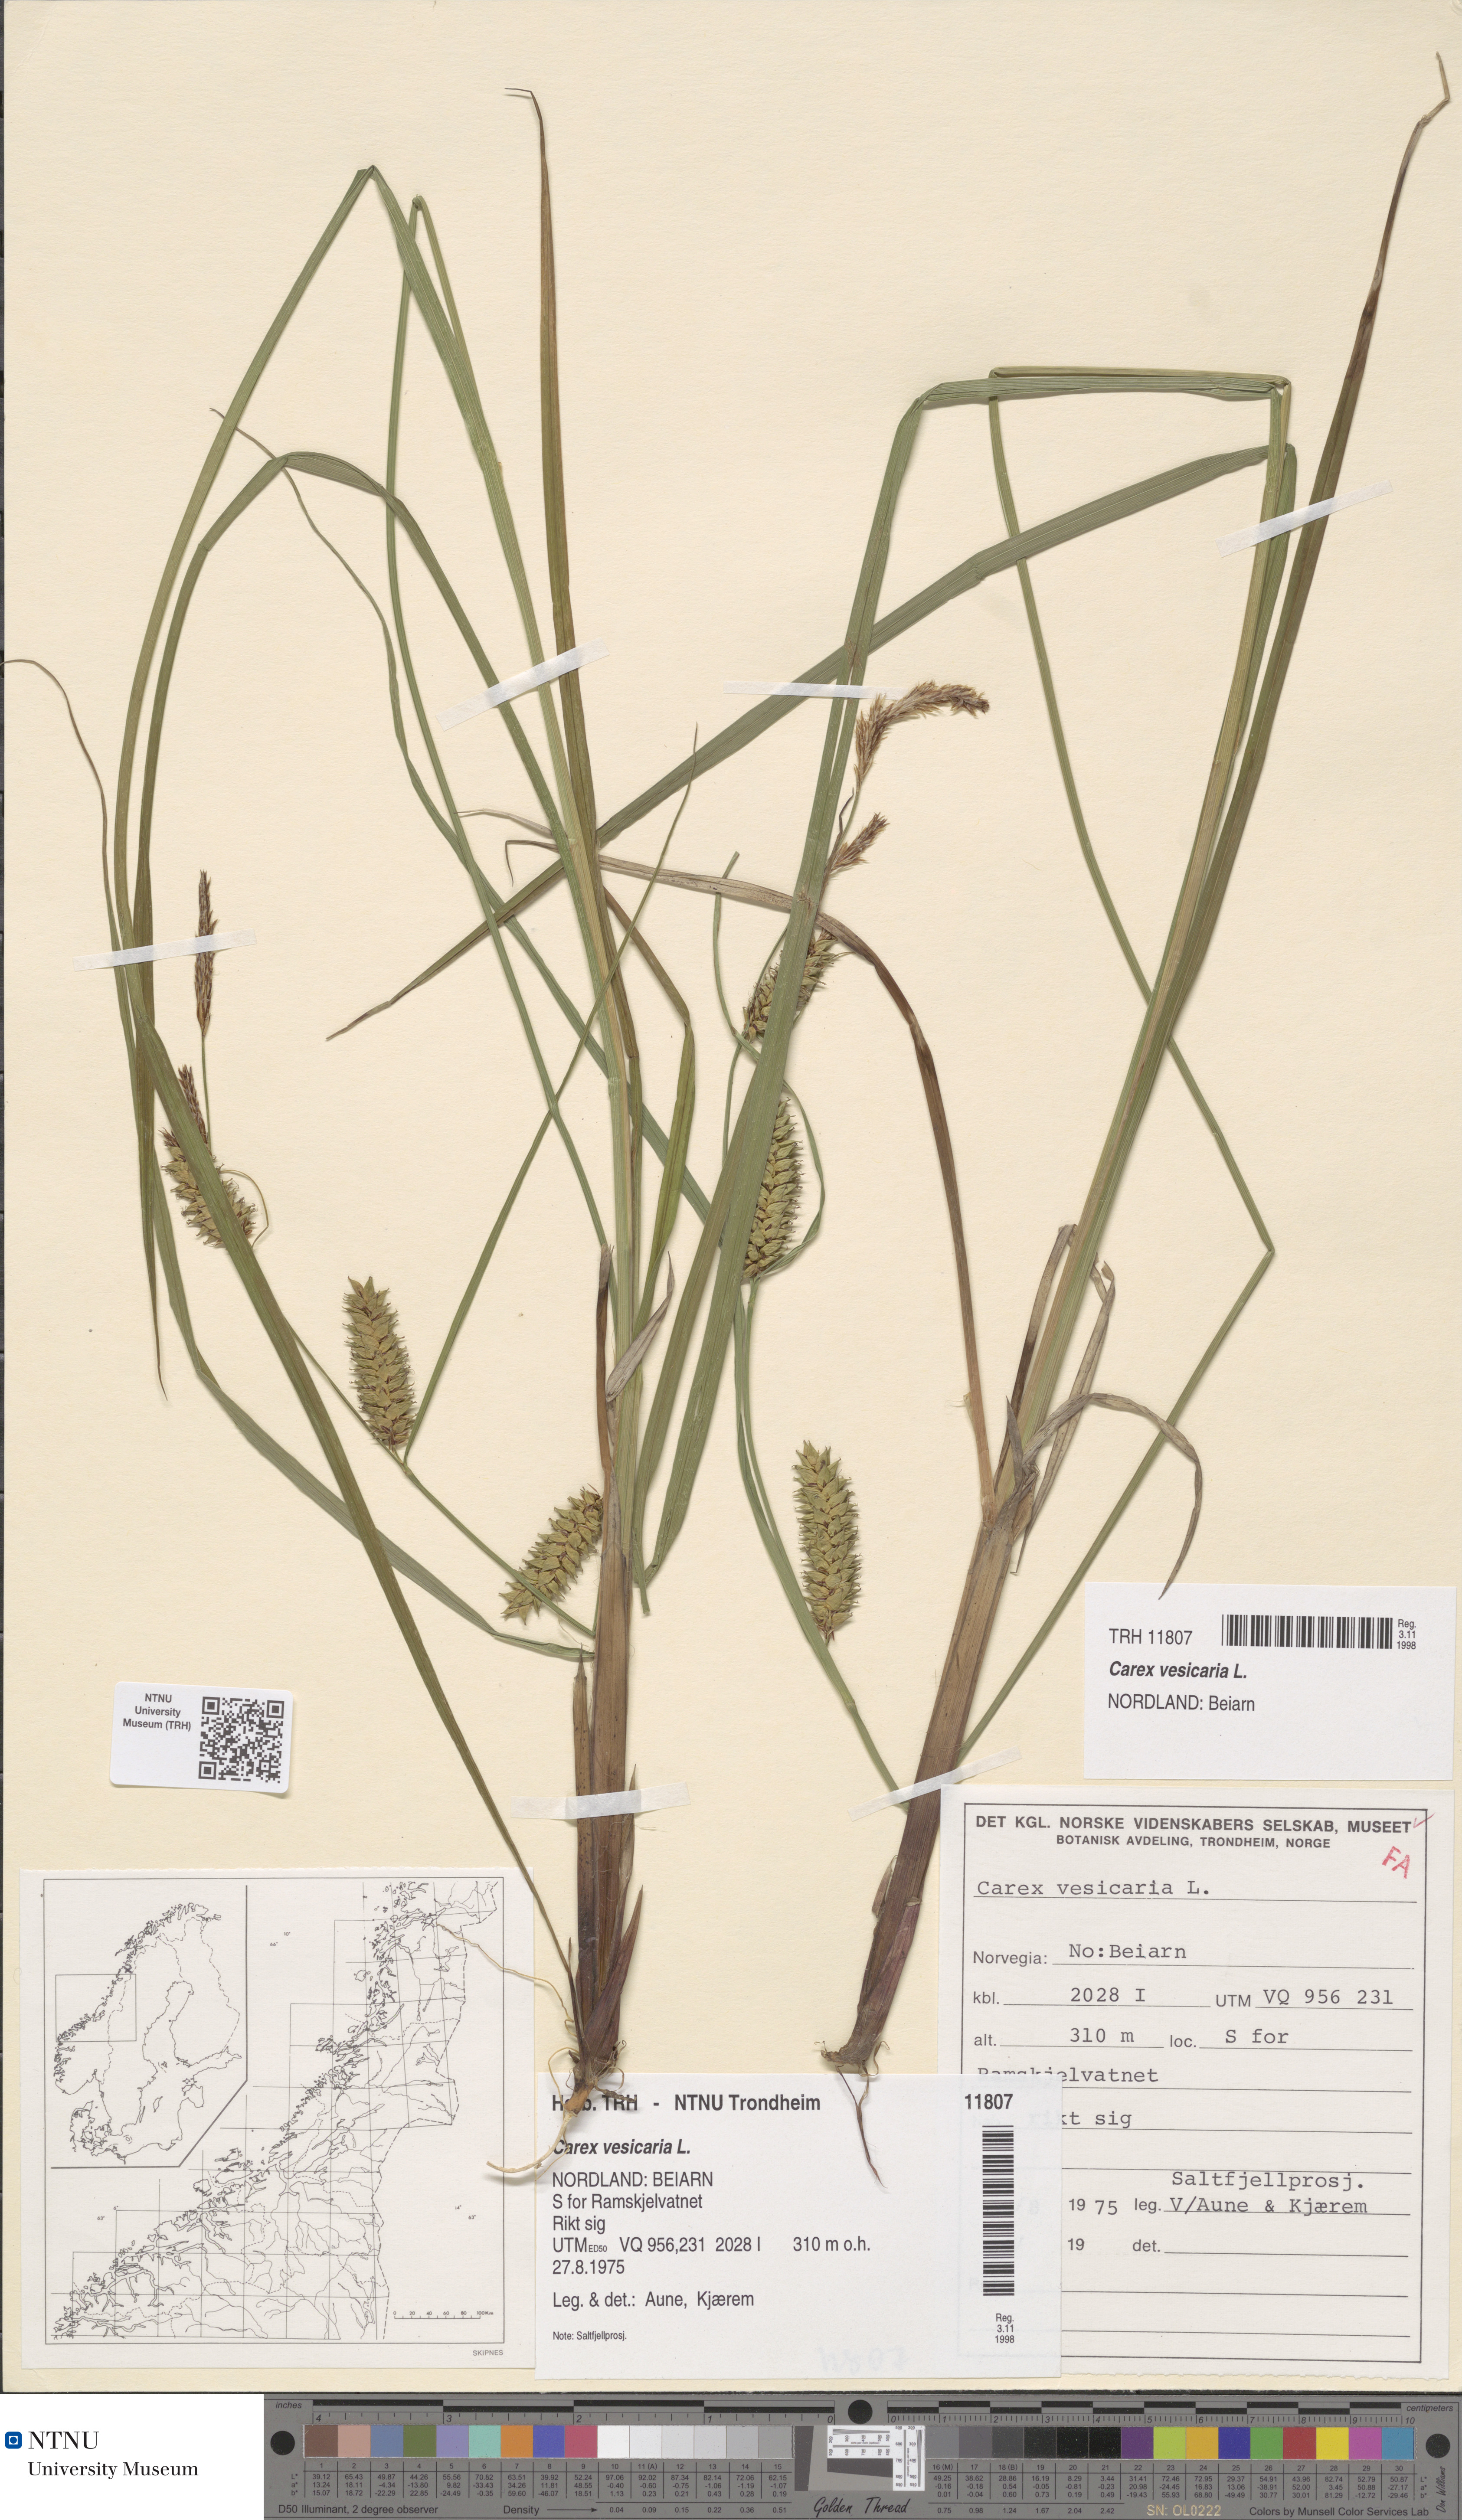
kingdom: Plantae
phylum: Tracheophyta
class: Liliopsida
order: Poales
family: Cyperaceae
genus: Carex
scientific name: Carex vesicaria
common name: Bladder-sedge
